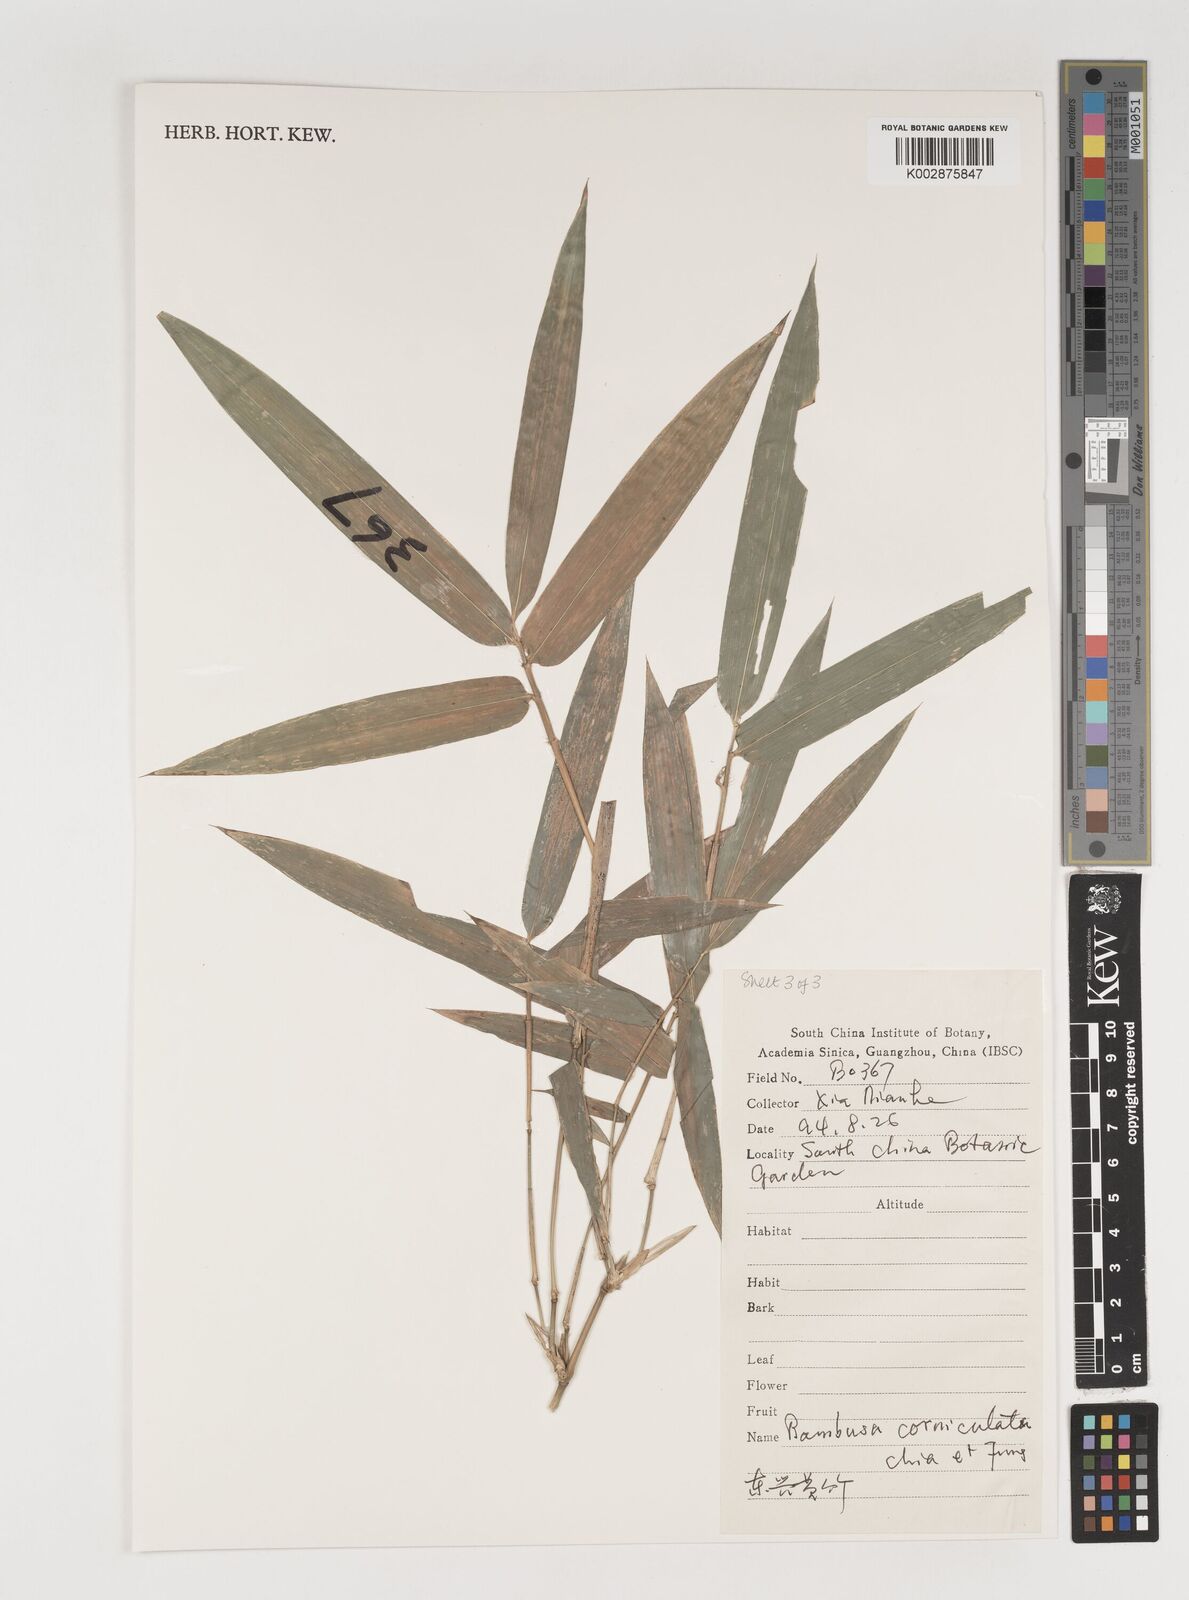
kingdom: Plantae
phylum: Tracheophyta
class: Liliopsida
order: Poales
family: Poaceae
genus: Bambusa
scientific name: Bambusa corniculata
